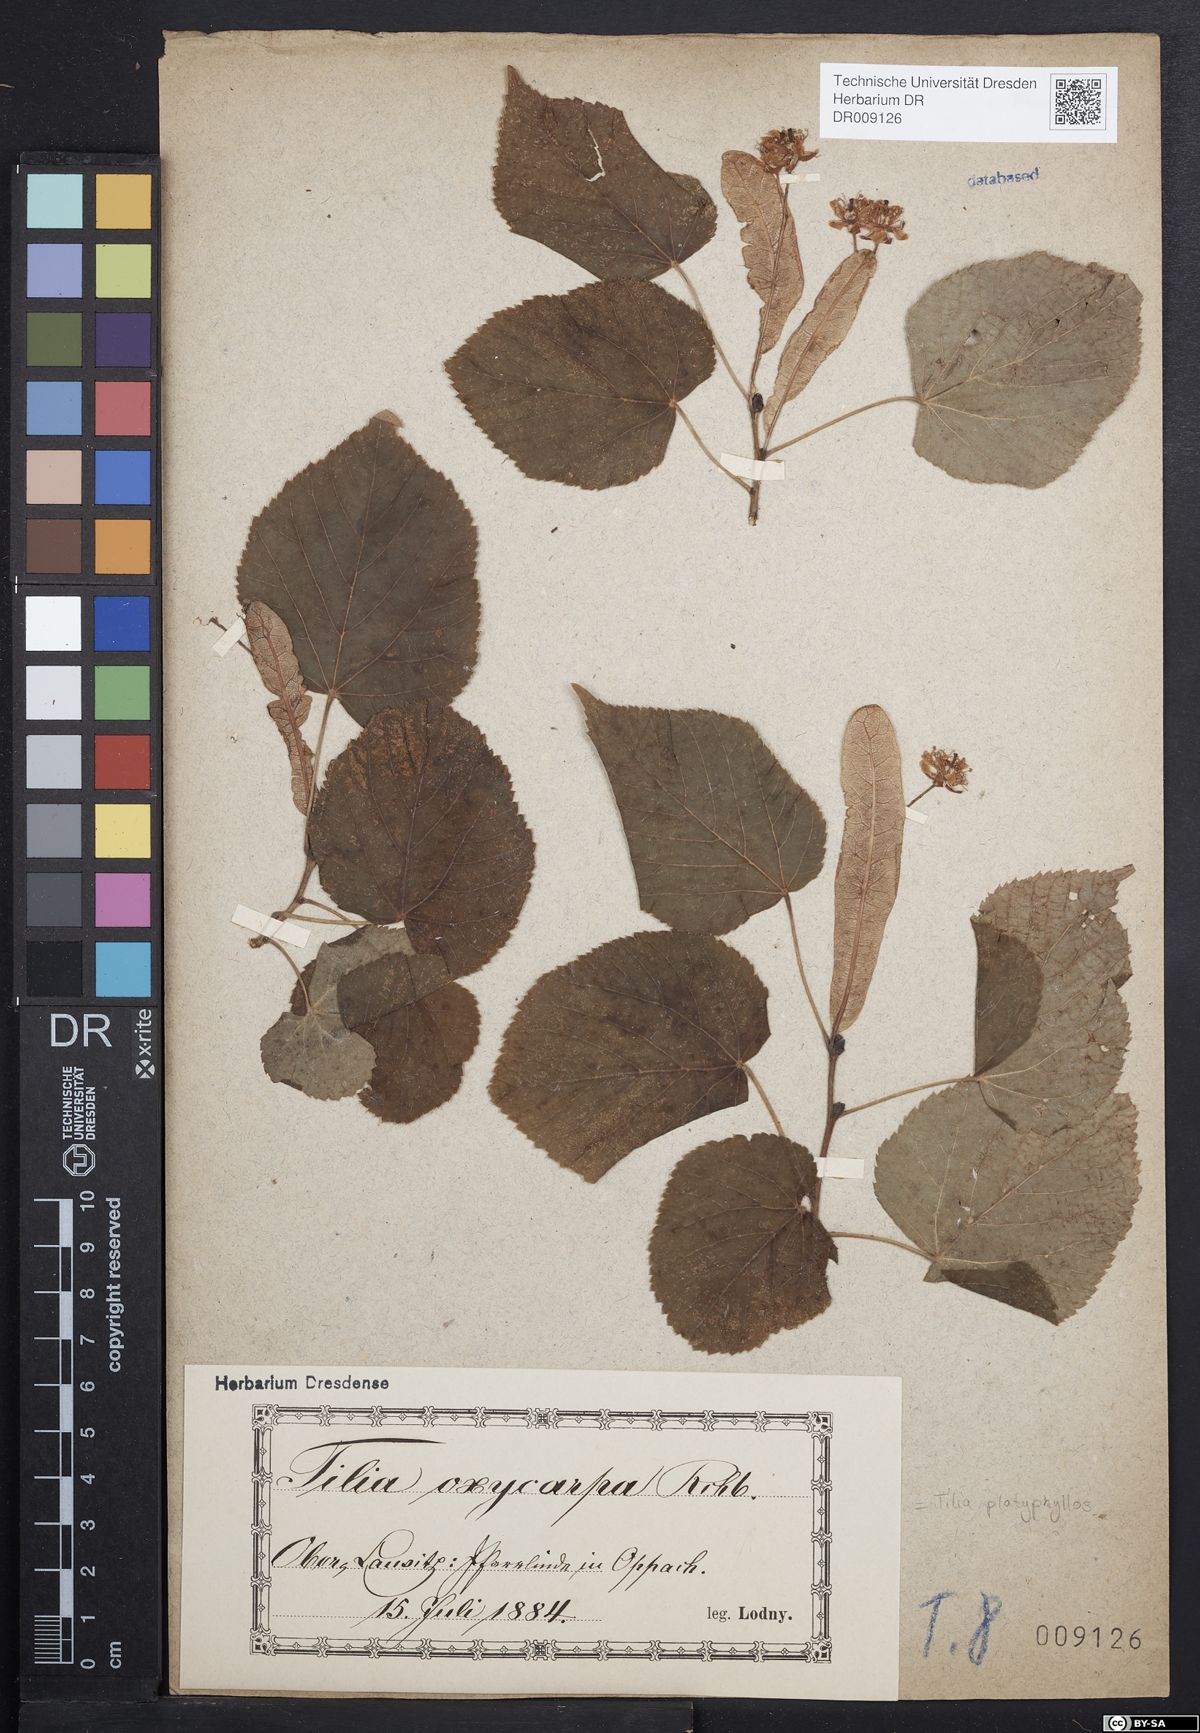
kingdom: Plantae
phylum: Tracheophyta
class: Magnoliopsida
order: Malvales
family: Malvaceae
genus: Tilia
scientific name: Tilia platyphyllos
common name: Large-leaved lime
